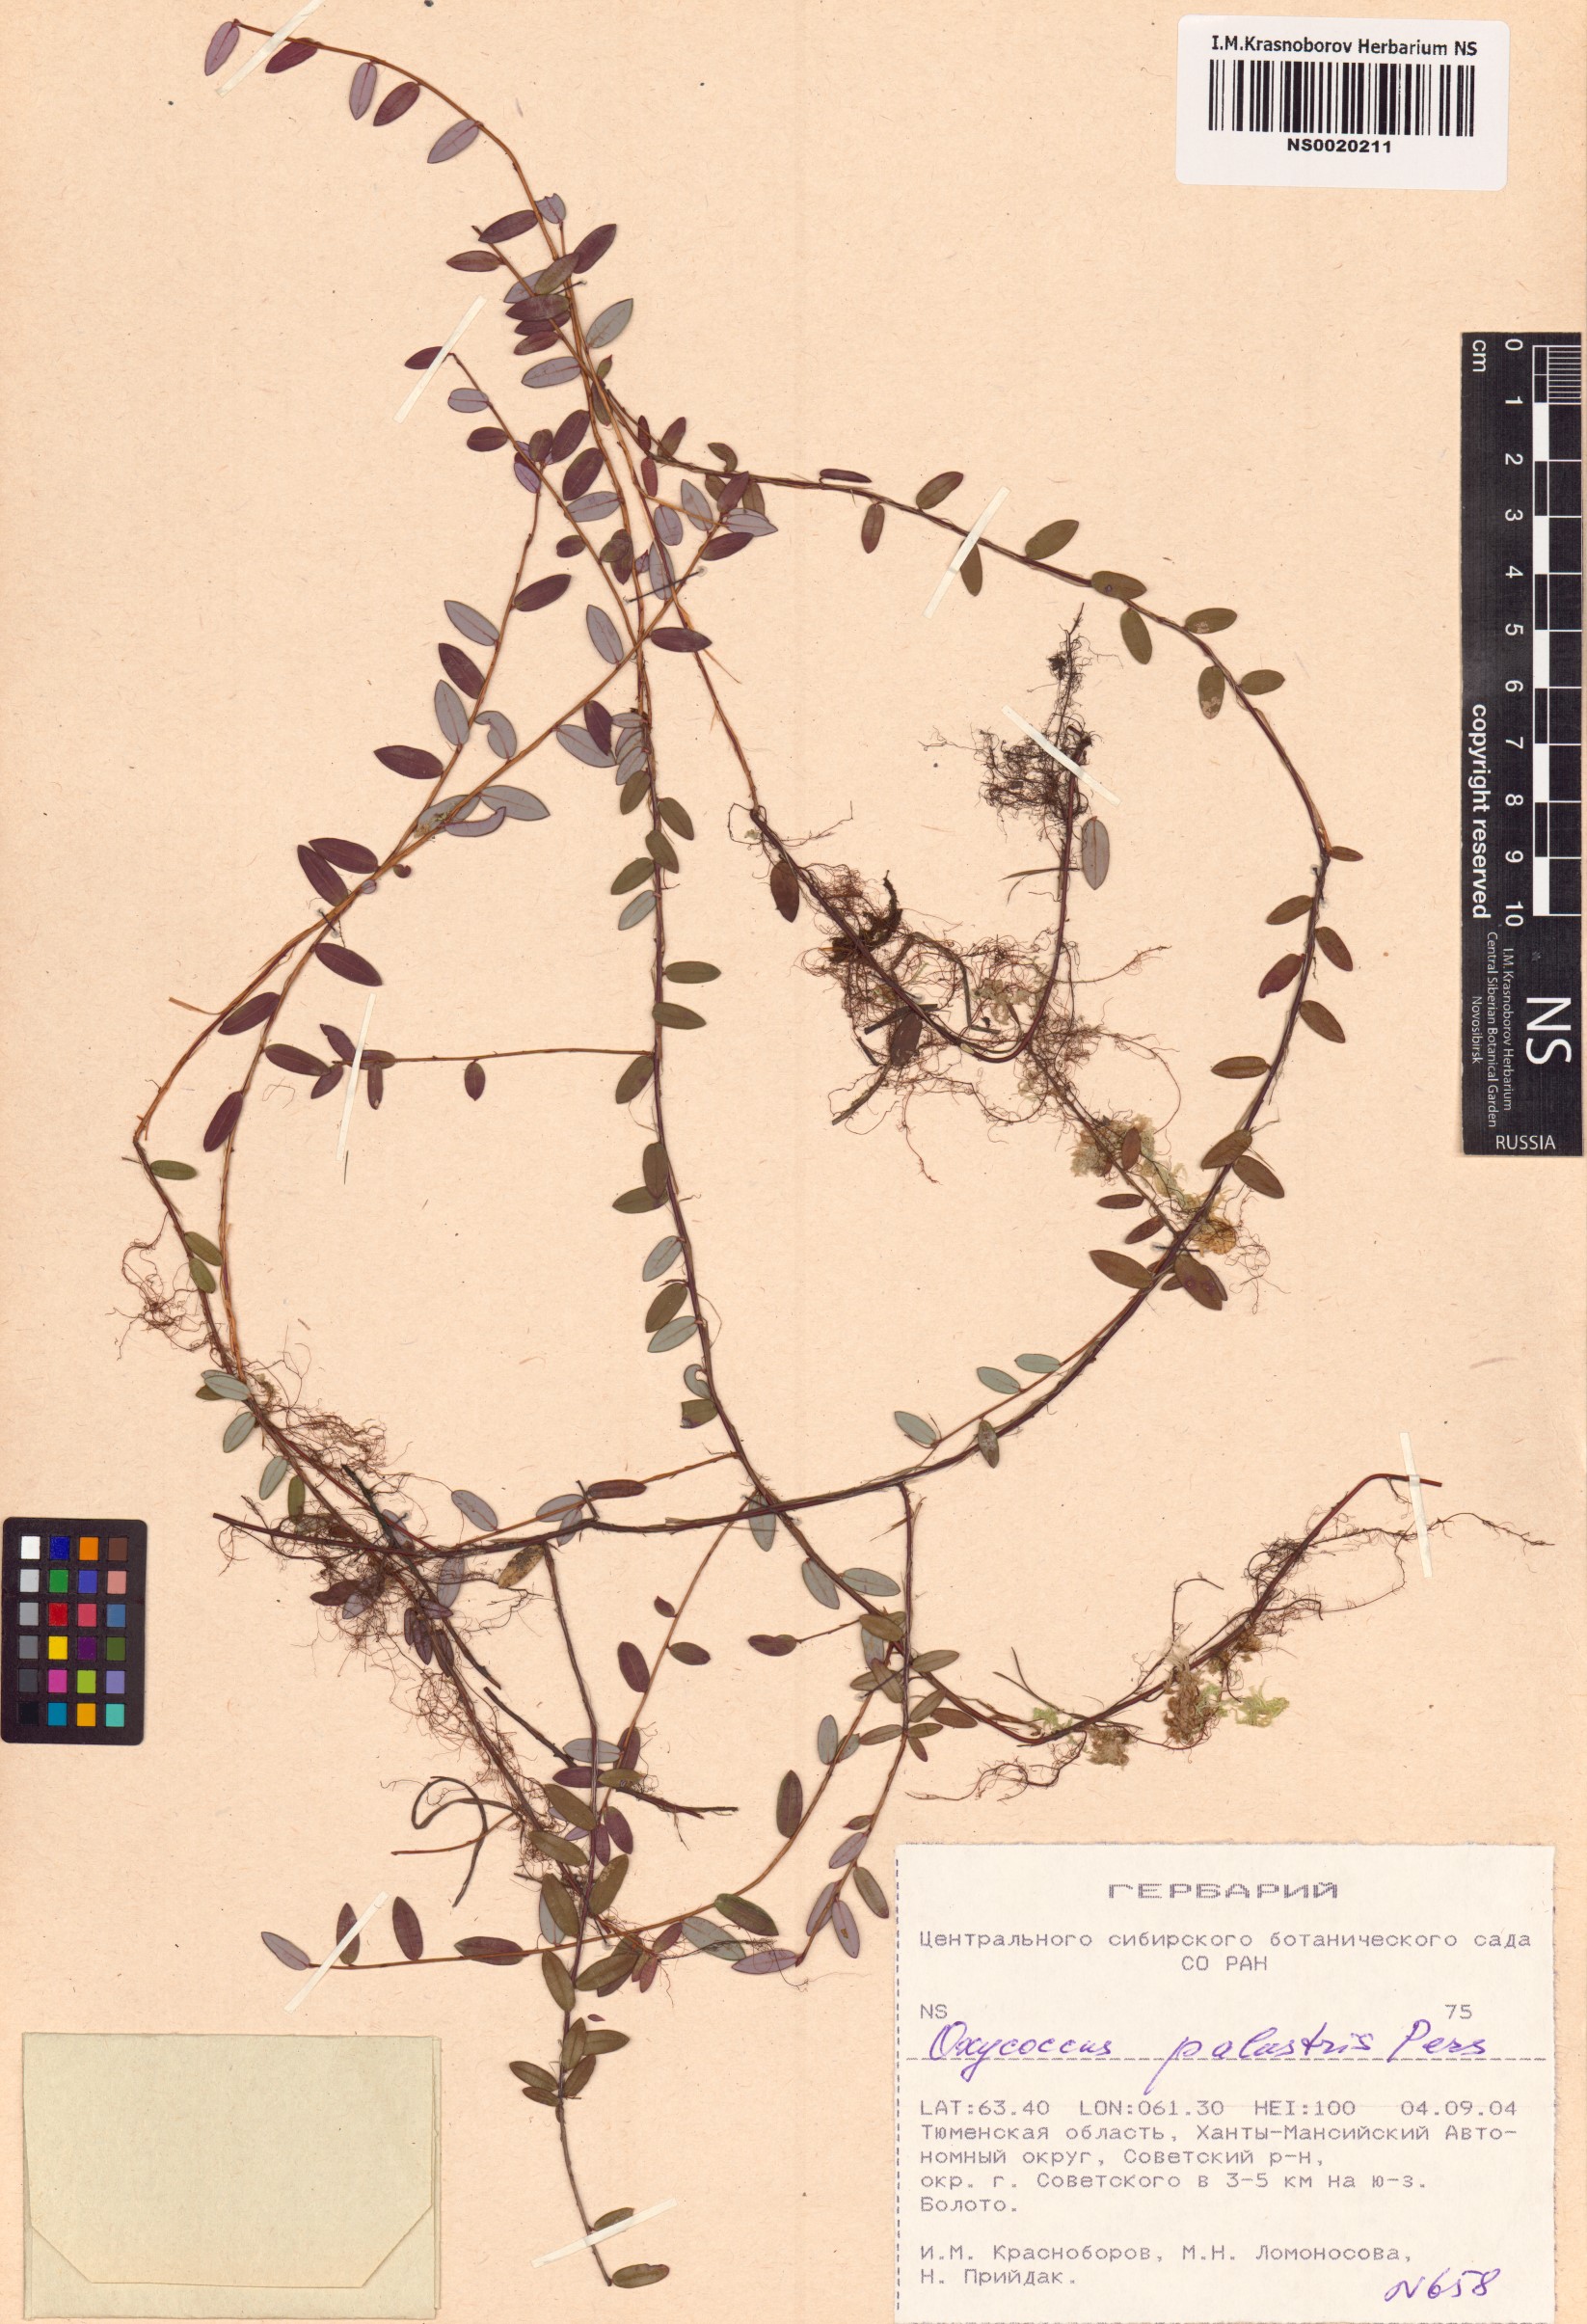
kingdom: Plantae
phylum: Tracheophyta
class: Magnoliopsida
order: Ericales
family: Ericaceae
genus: Vaccinium
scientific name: Vaccinium oxycoccos
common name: Cranberry
